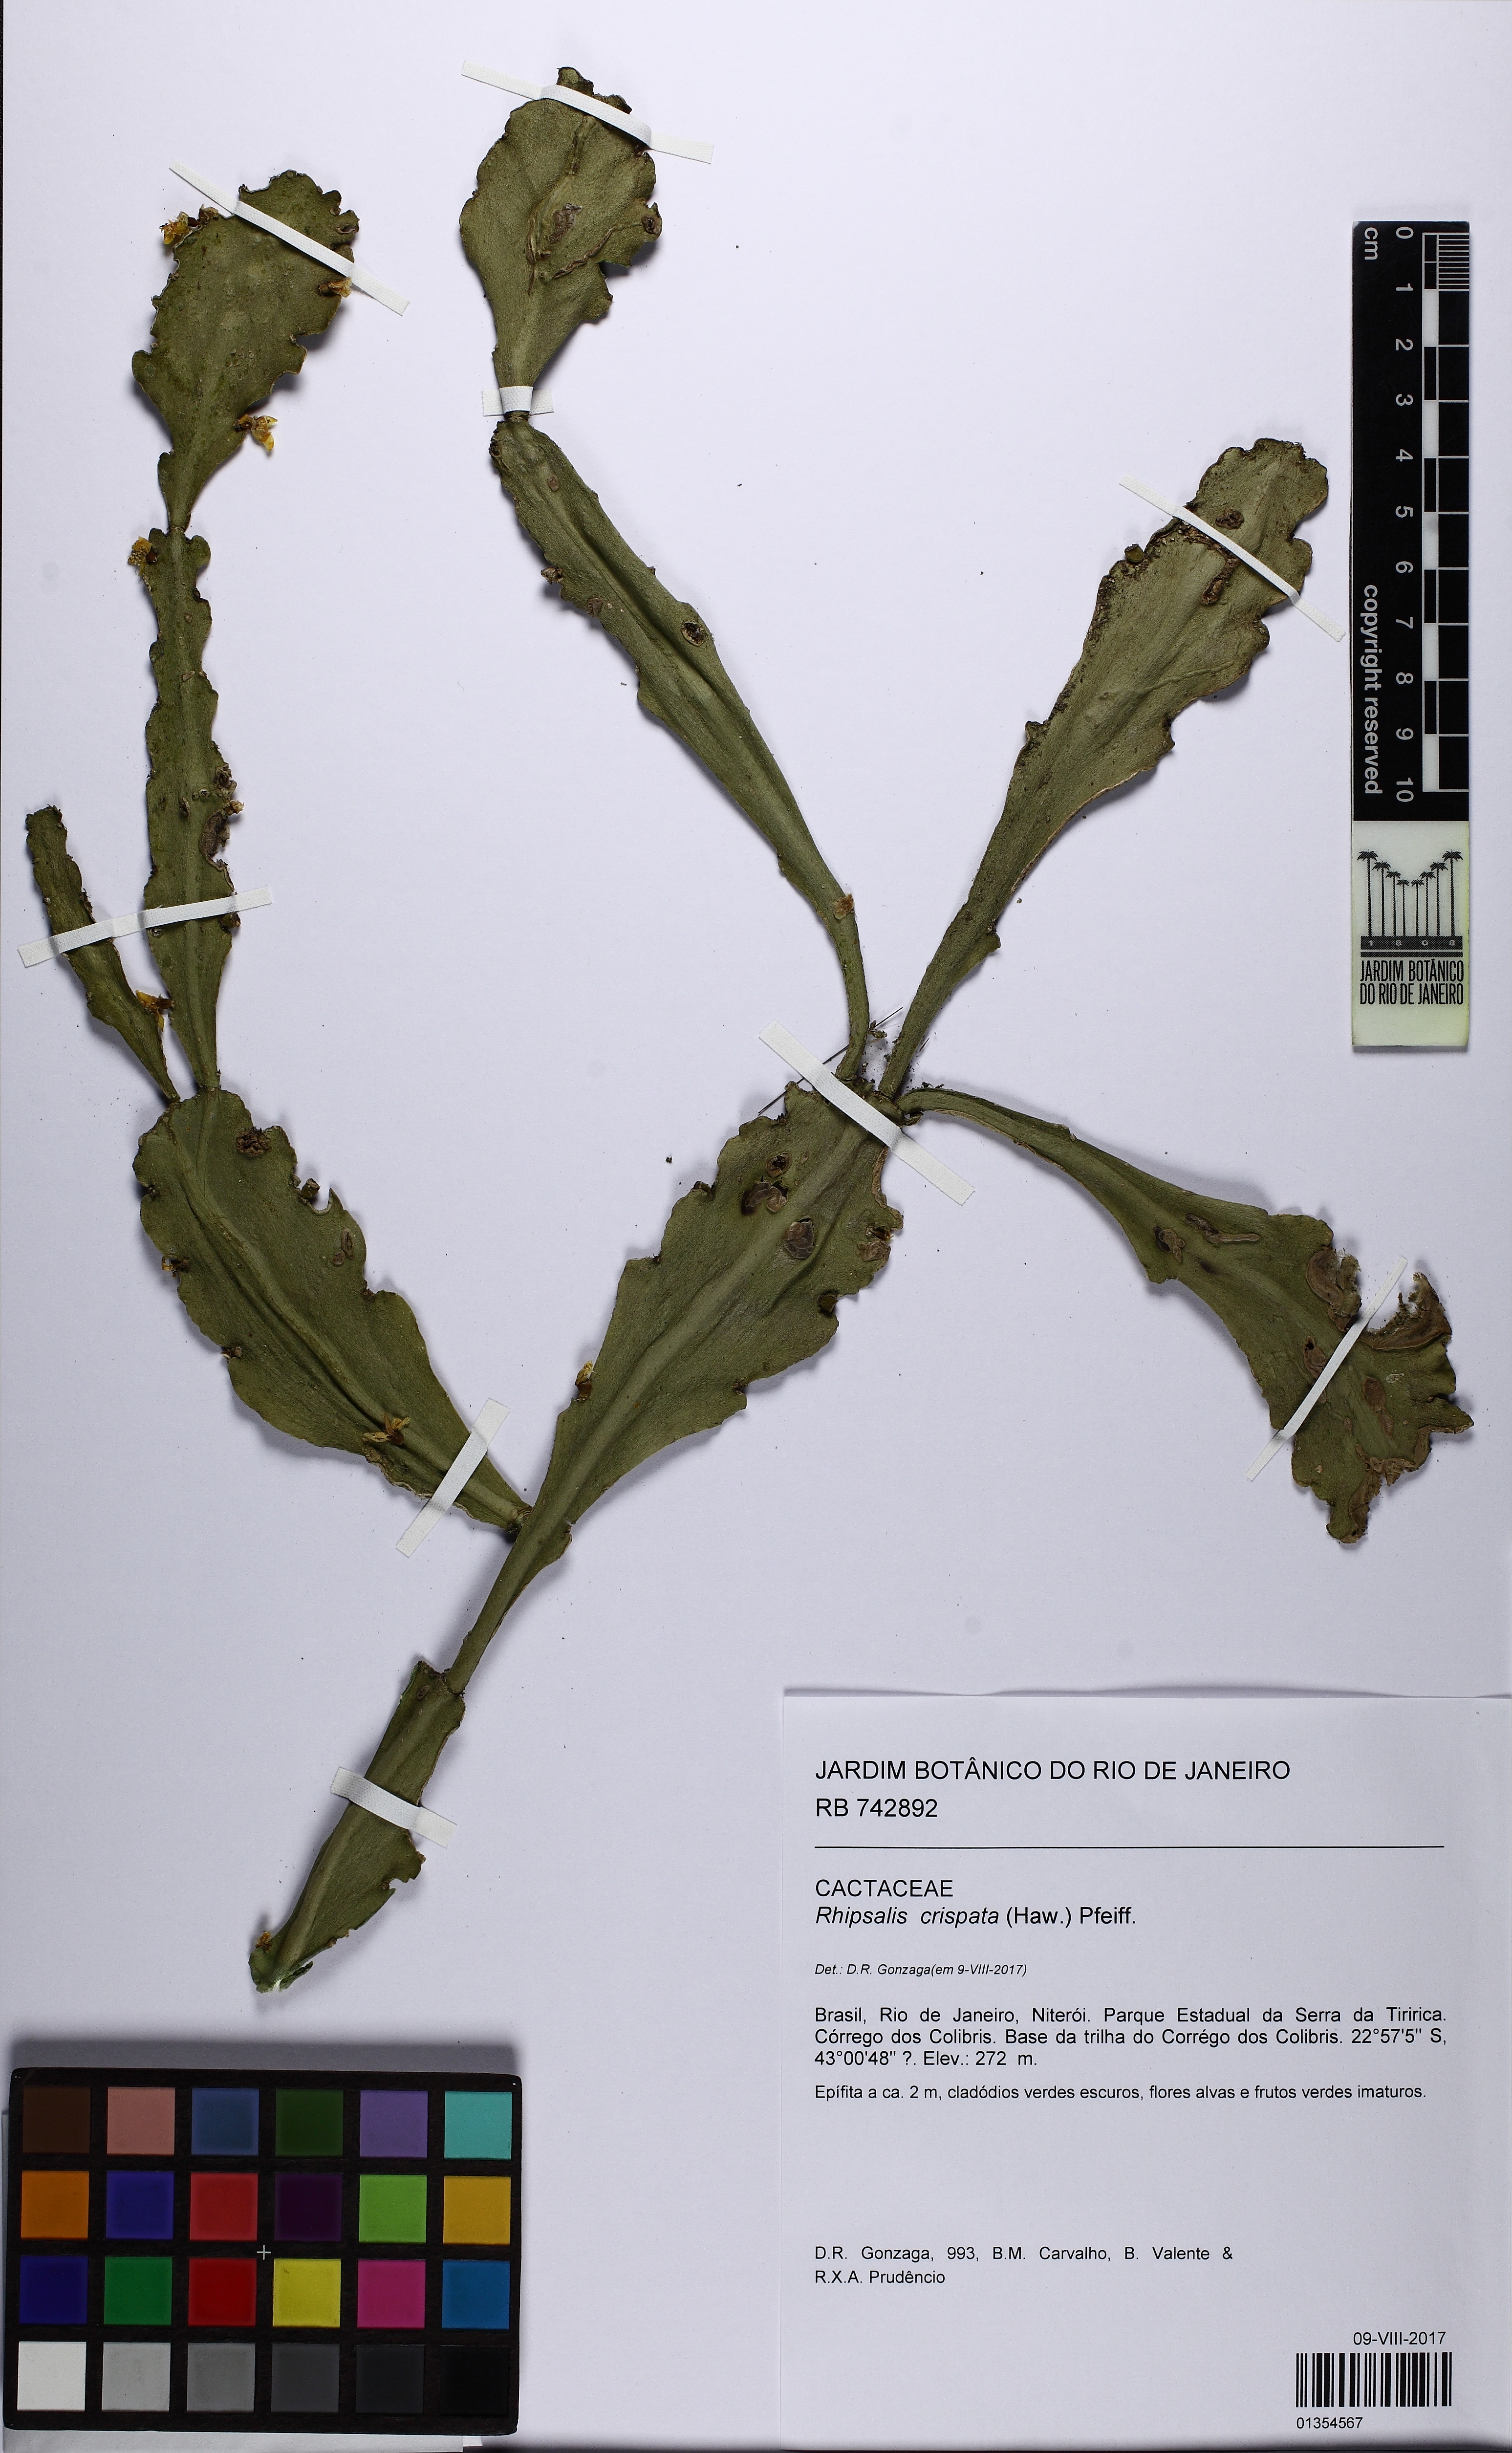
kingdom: Plantae
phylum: Tracheophyta
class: Magnoliopsida
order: Caryophyllales
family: Cactaceae
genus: Rhipsalis
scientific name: Rhipsalis crispata
